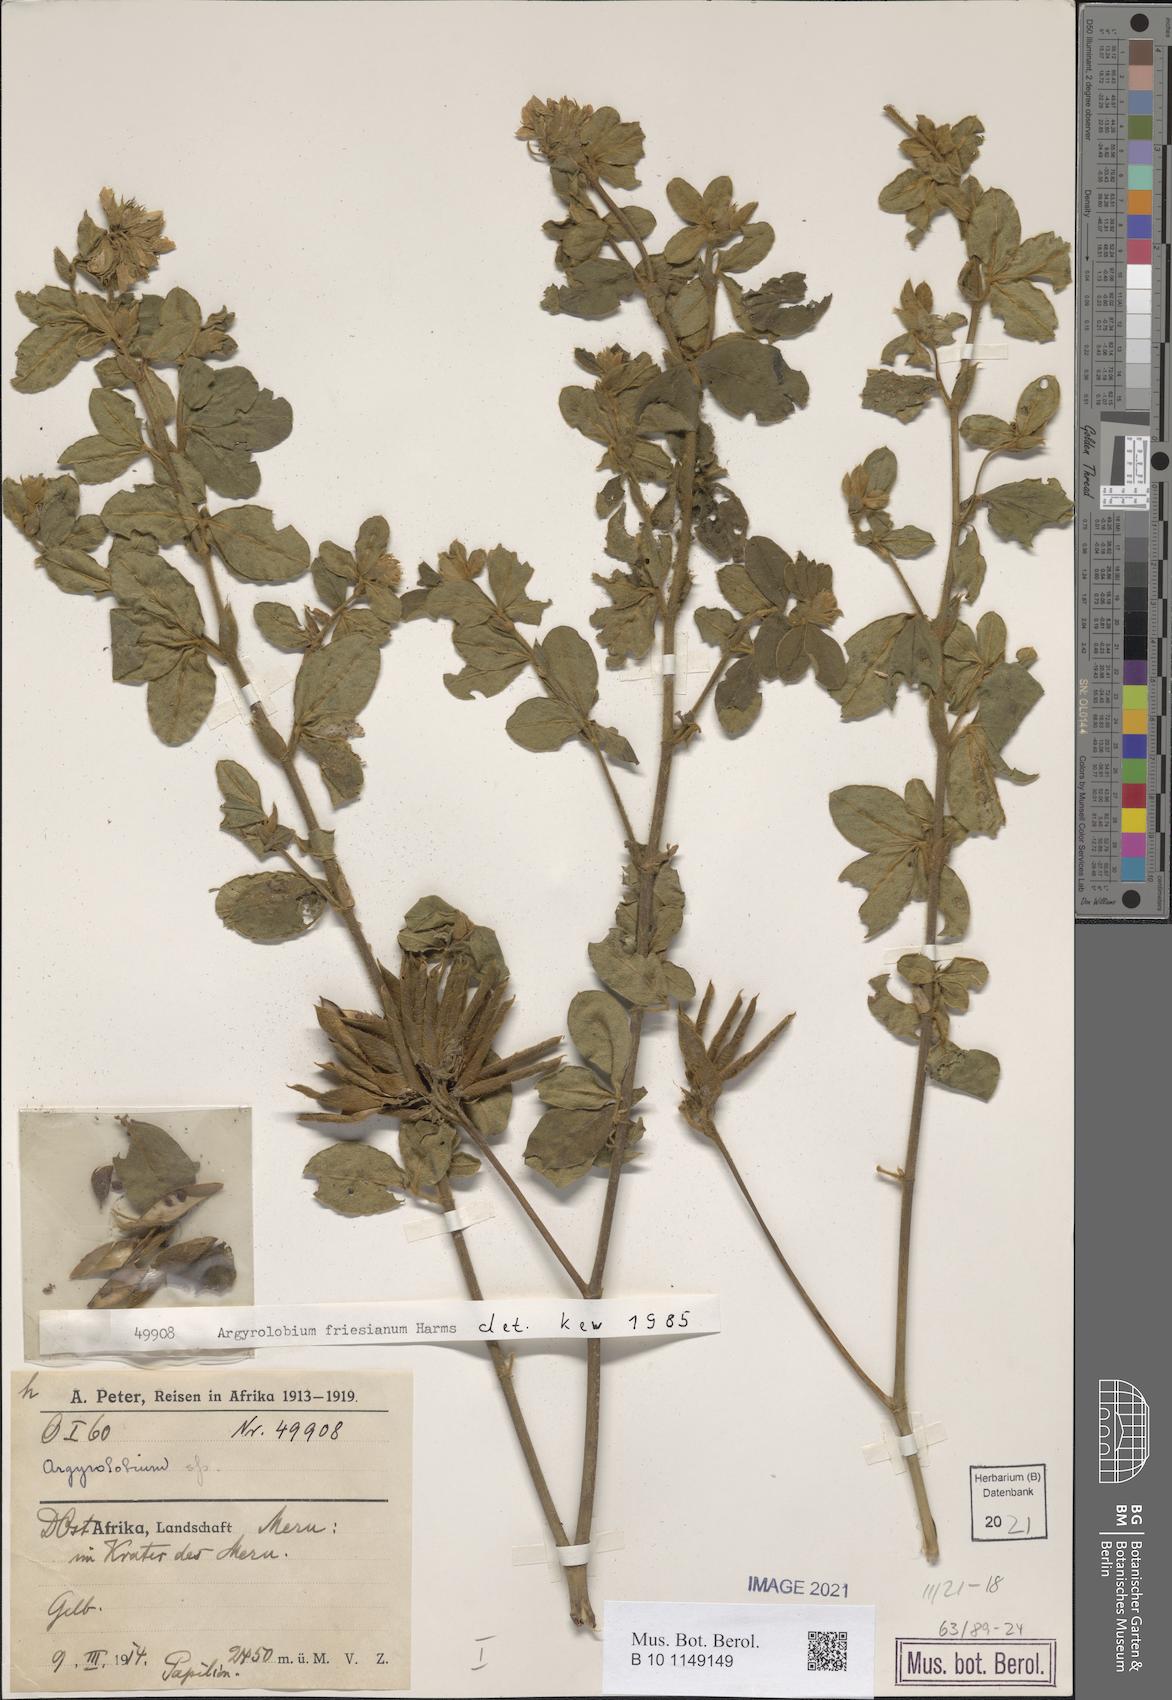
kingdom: Plantae
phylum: Tracheophyta
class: Magnoliopsida
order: Fabales
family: Fabaceae
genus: Argyrolobium
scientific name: Argyrolobium friesianum
